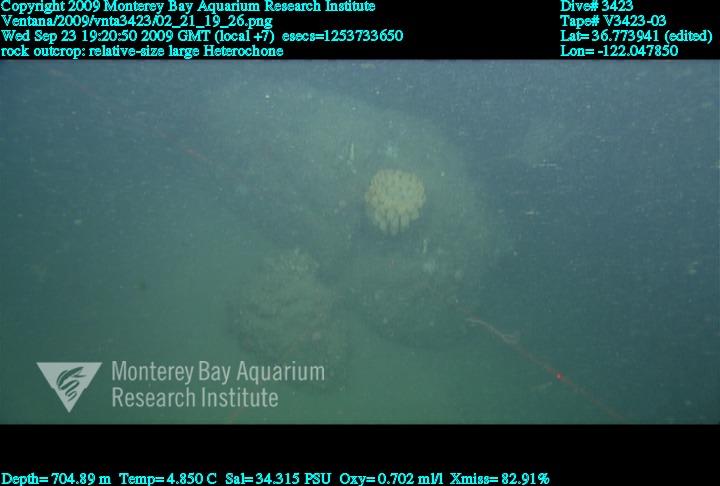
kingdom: Animalia
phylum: Porifera
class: Hexactinellida
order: Sceptrulophora
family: Aphrocallistidae
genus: Heterochone
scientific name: Heterochone
